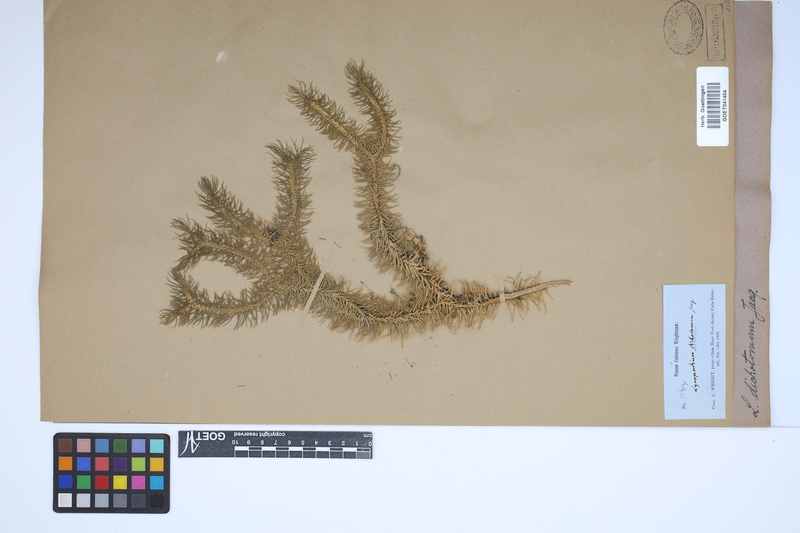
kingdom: Plantae
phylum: Tracheophyta
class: Lycopodiopsida
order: Lycopodiales
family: Lycopodiaceae
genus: Phlegmariurus
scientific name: Phlegmariurus dichotomus
